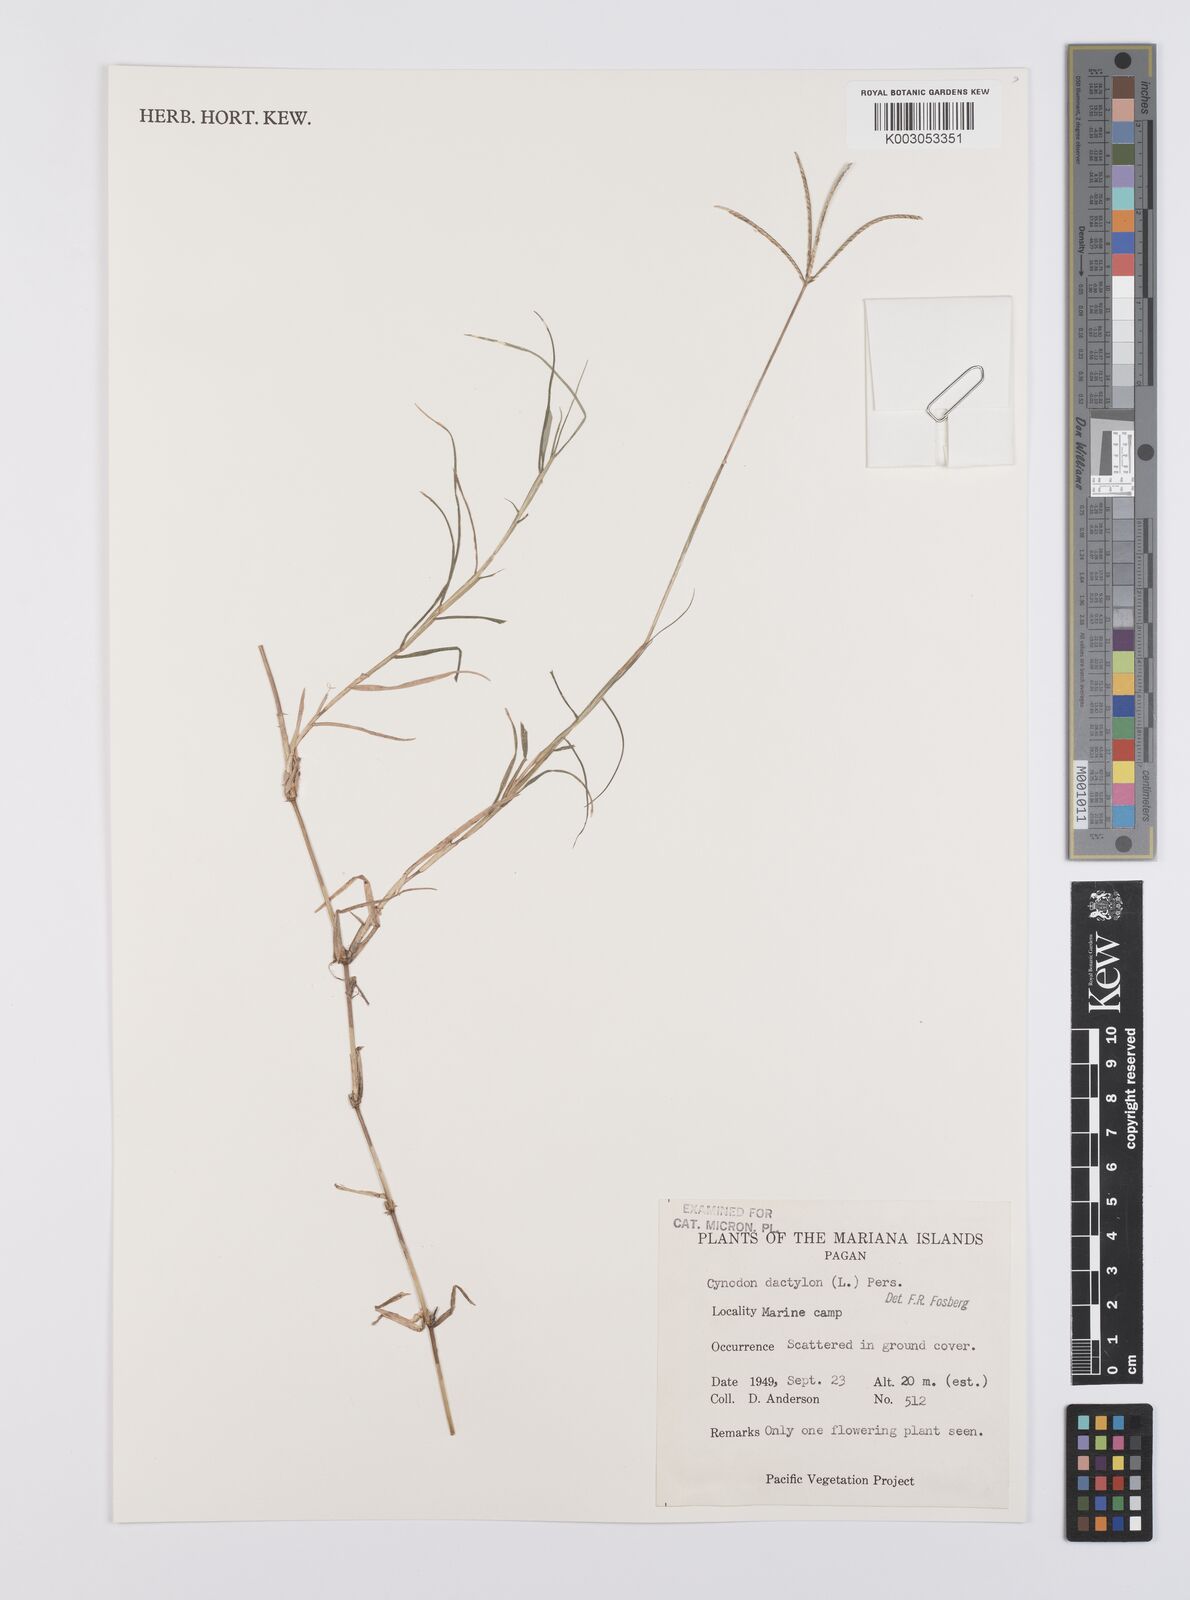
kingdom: Plantae
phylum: Tracheophyta
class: Liliopsida
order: Poales
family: Poaceae
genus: Cynodon
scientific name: Cynodon dactylon
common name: Bermuda grass
